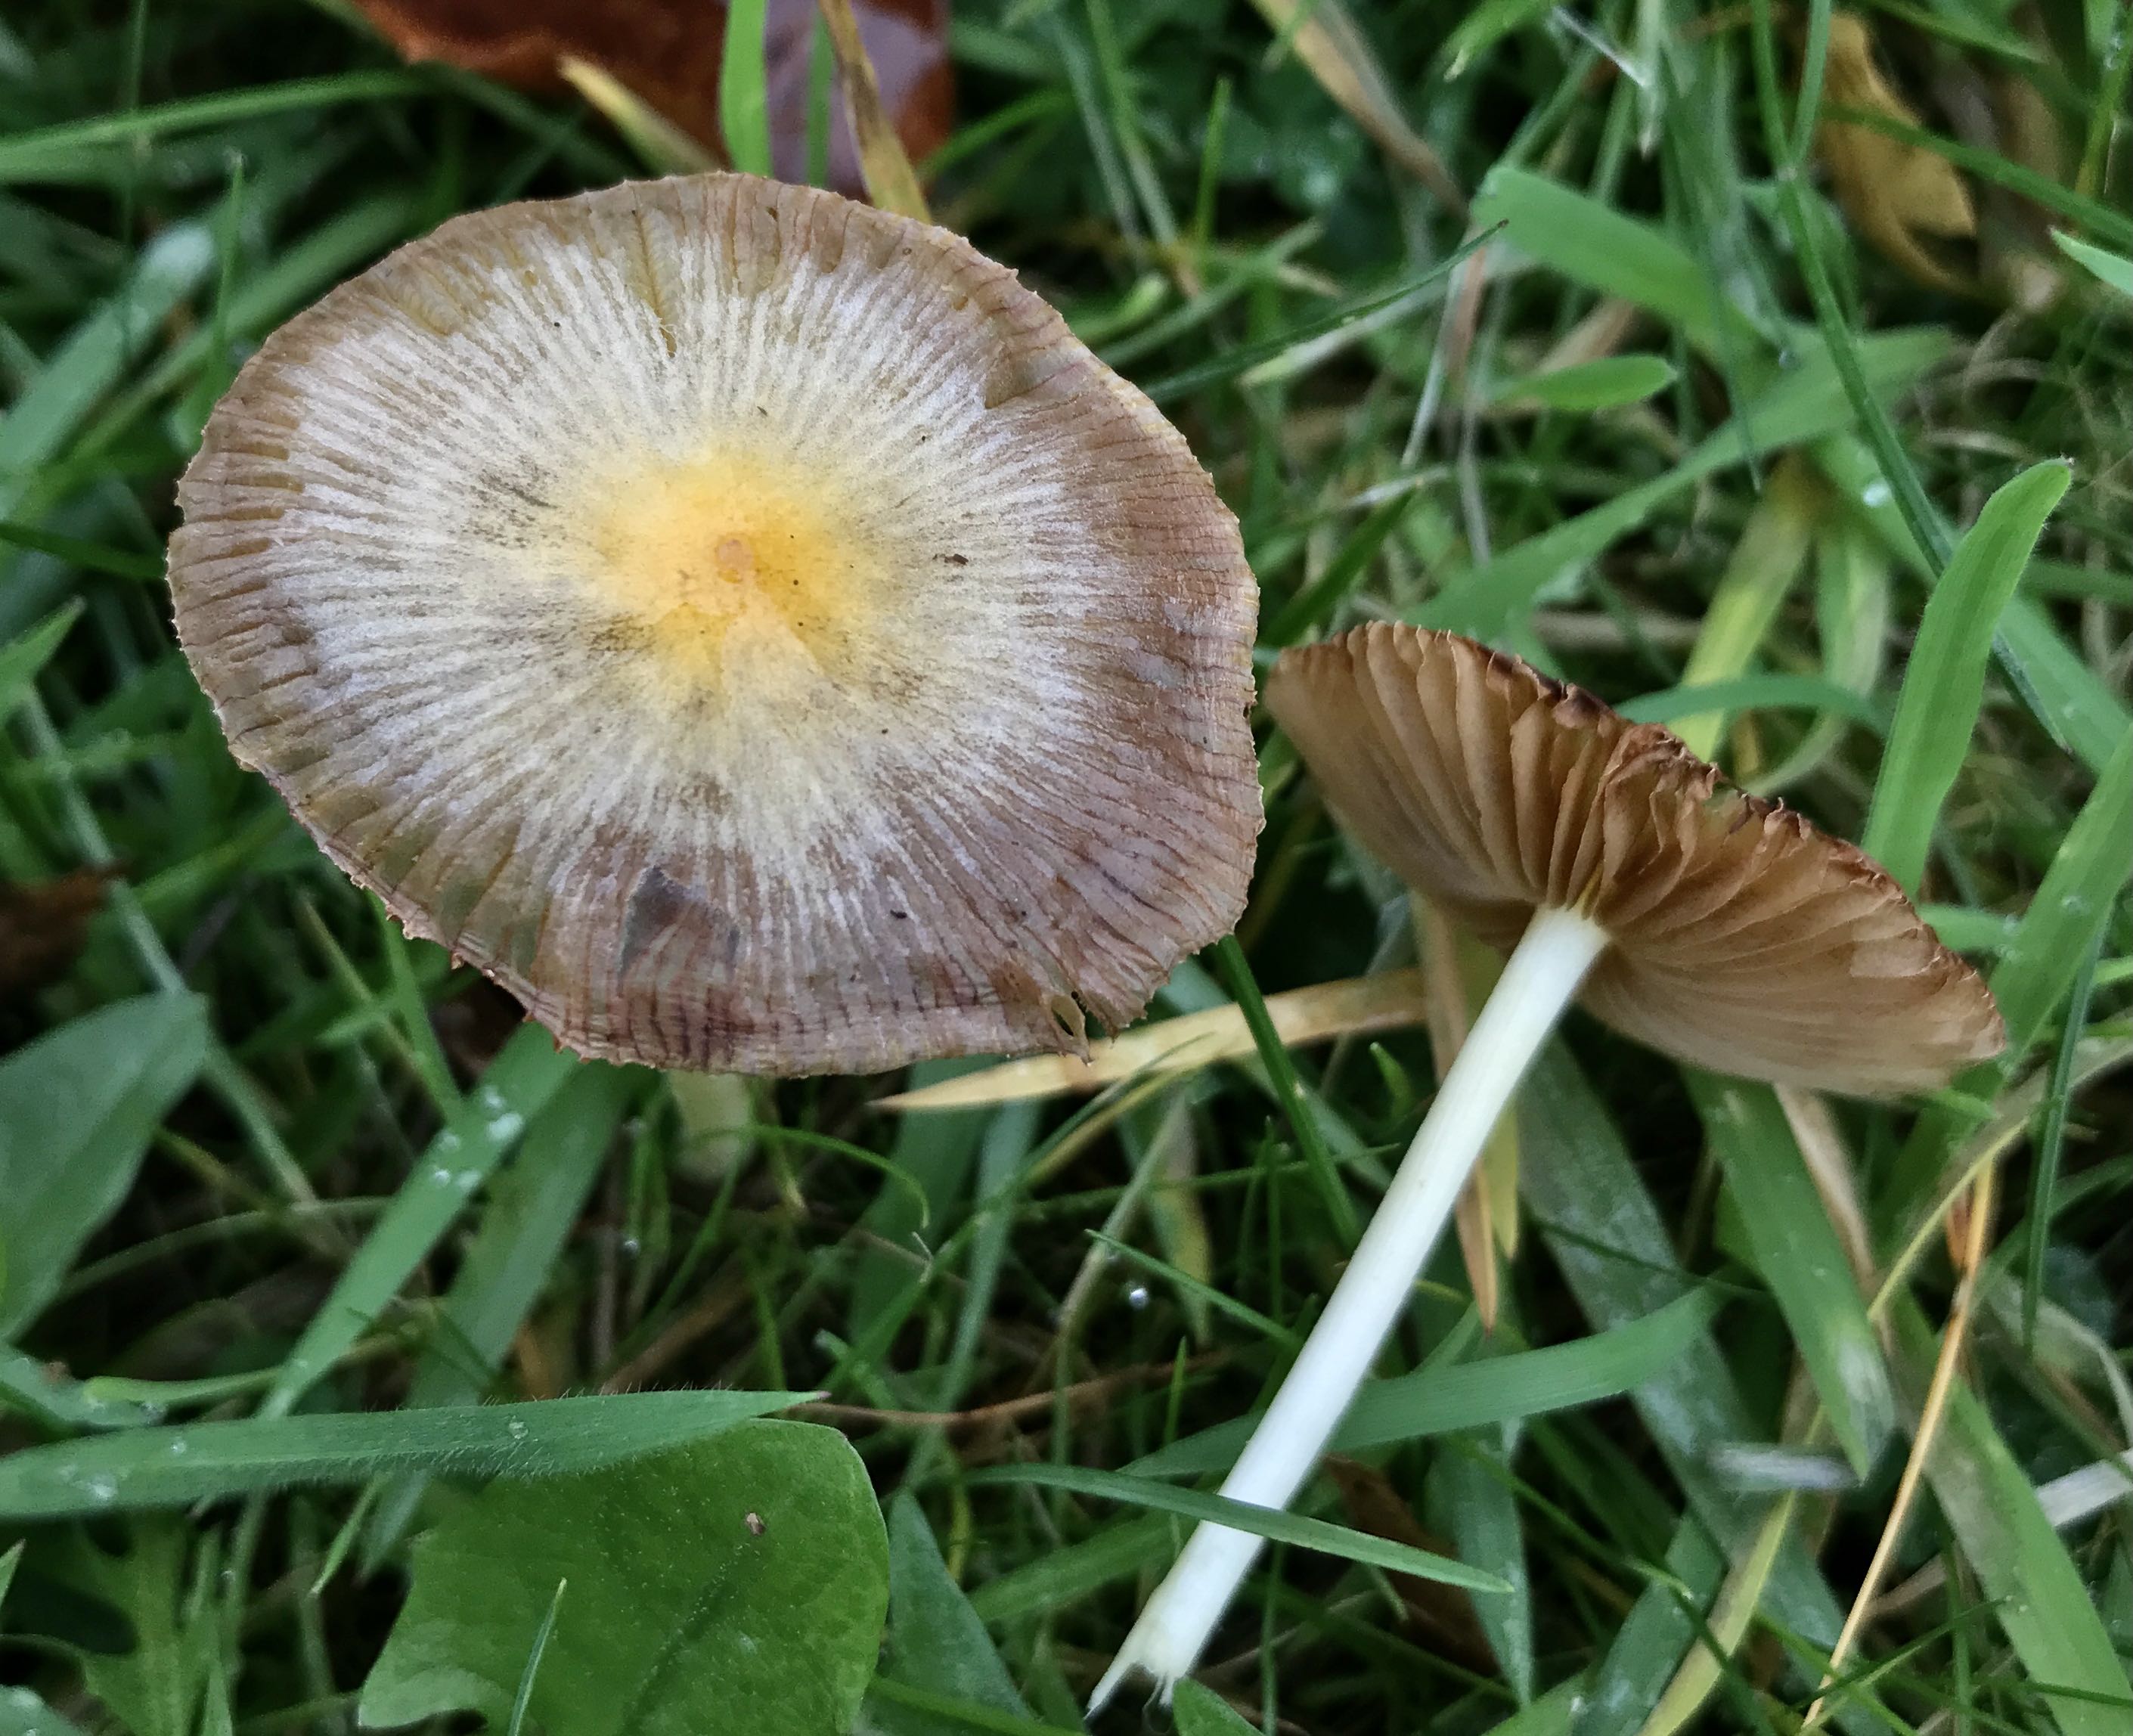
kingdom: Fungi
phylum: Basidiomycota
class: Agaricomycetes
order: Agaricales
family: Bolbitiaceae
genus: Bolbitius
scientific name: Bolbitius titubans
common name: almindelig gulhat
